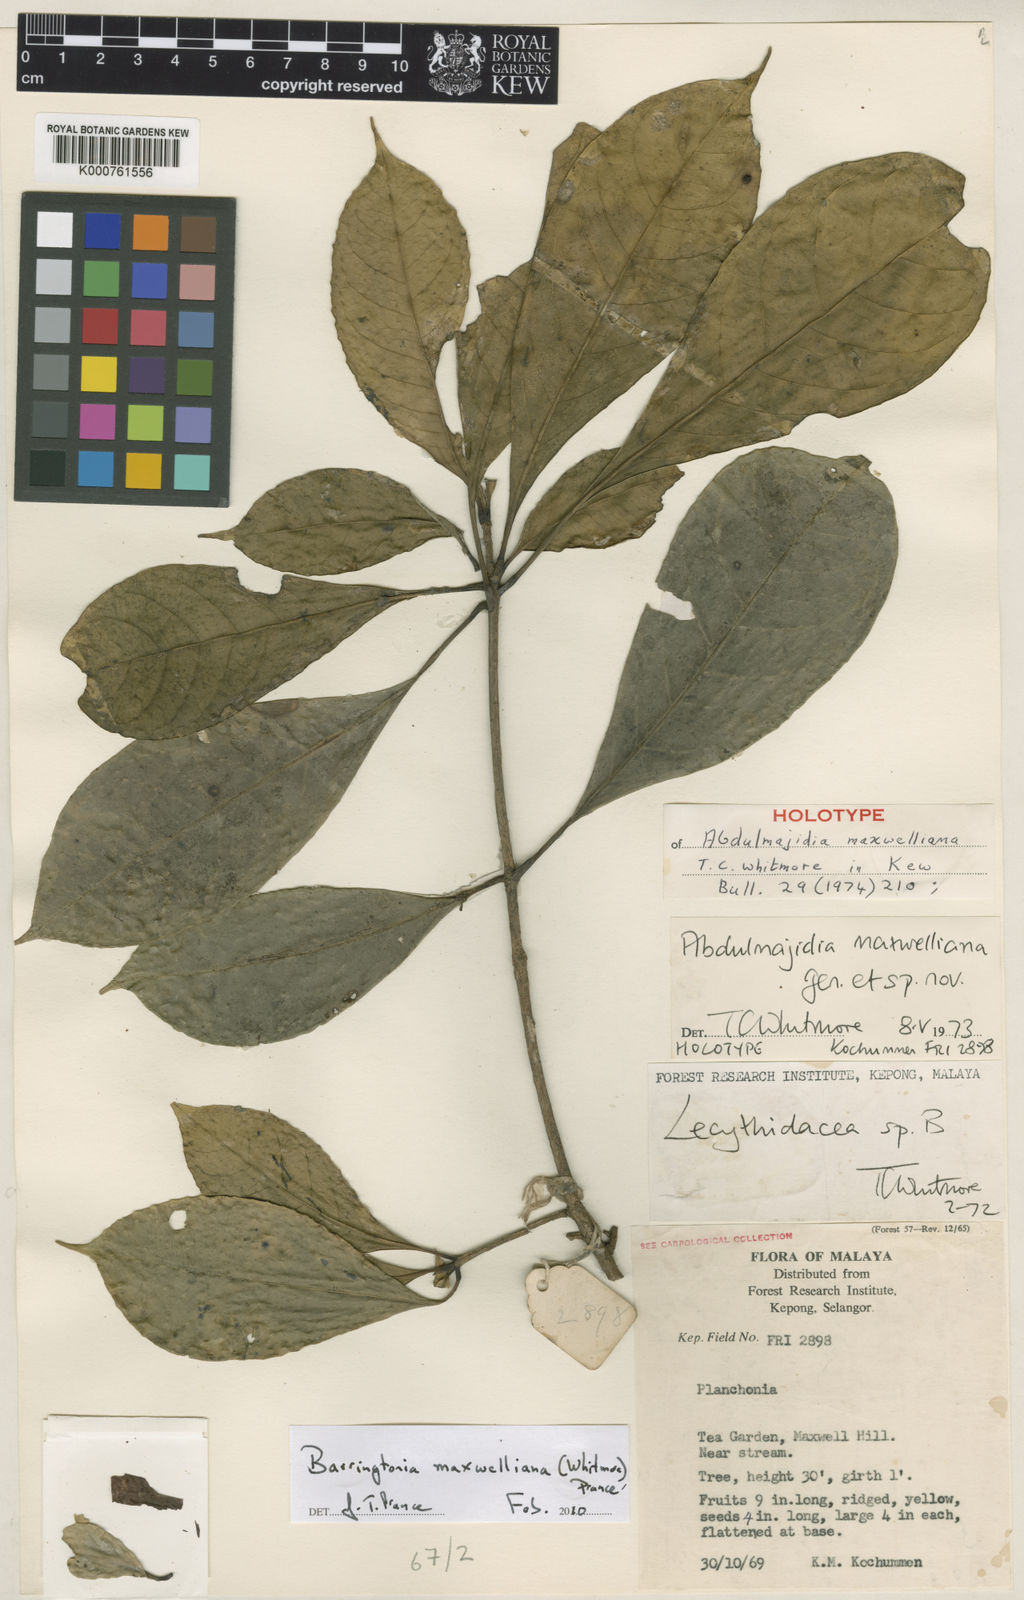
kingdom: Plantae
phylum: Tracheophyta
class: Magnoliopsida
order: Ericales
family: Lecythidaceae
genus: Barringtonia
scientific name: Barringtonia maxwelliana
